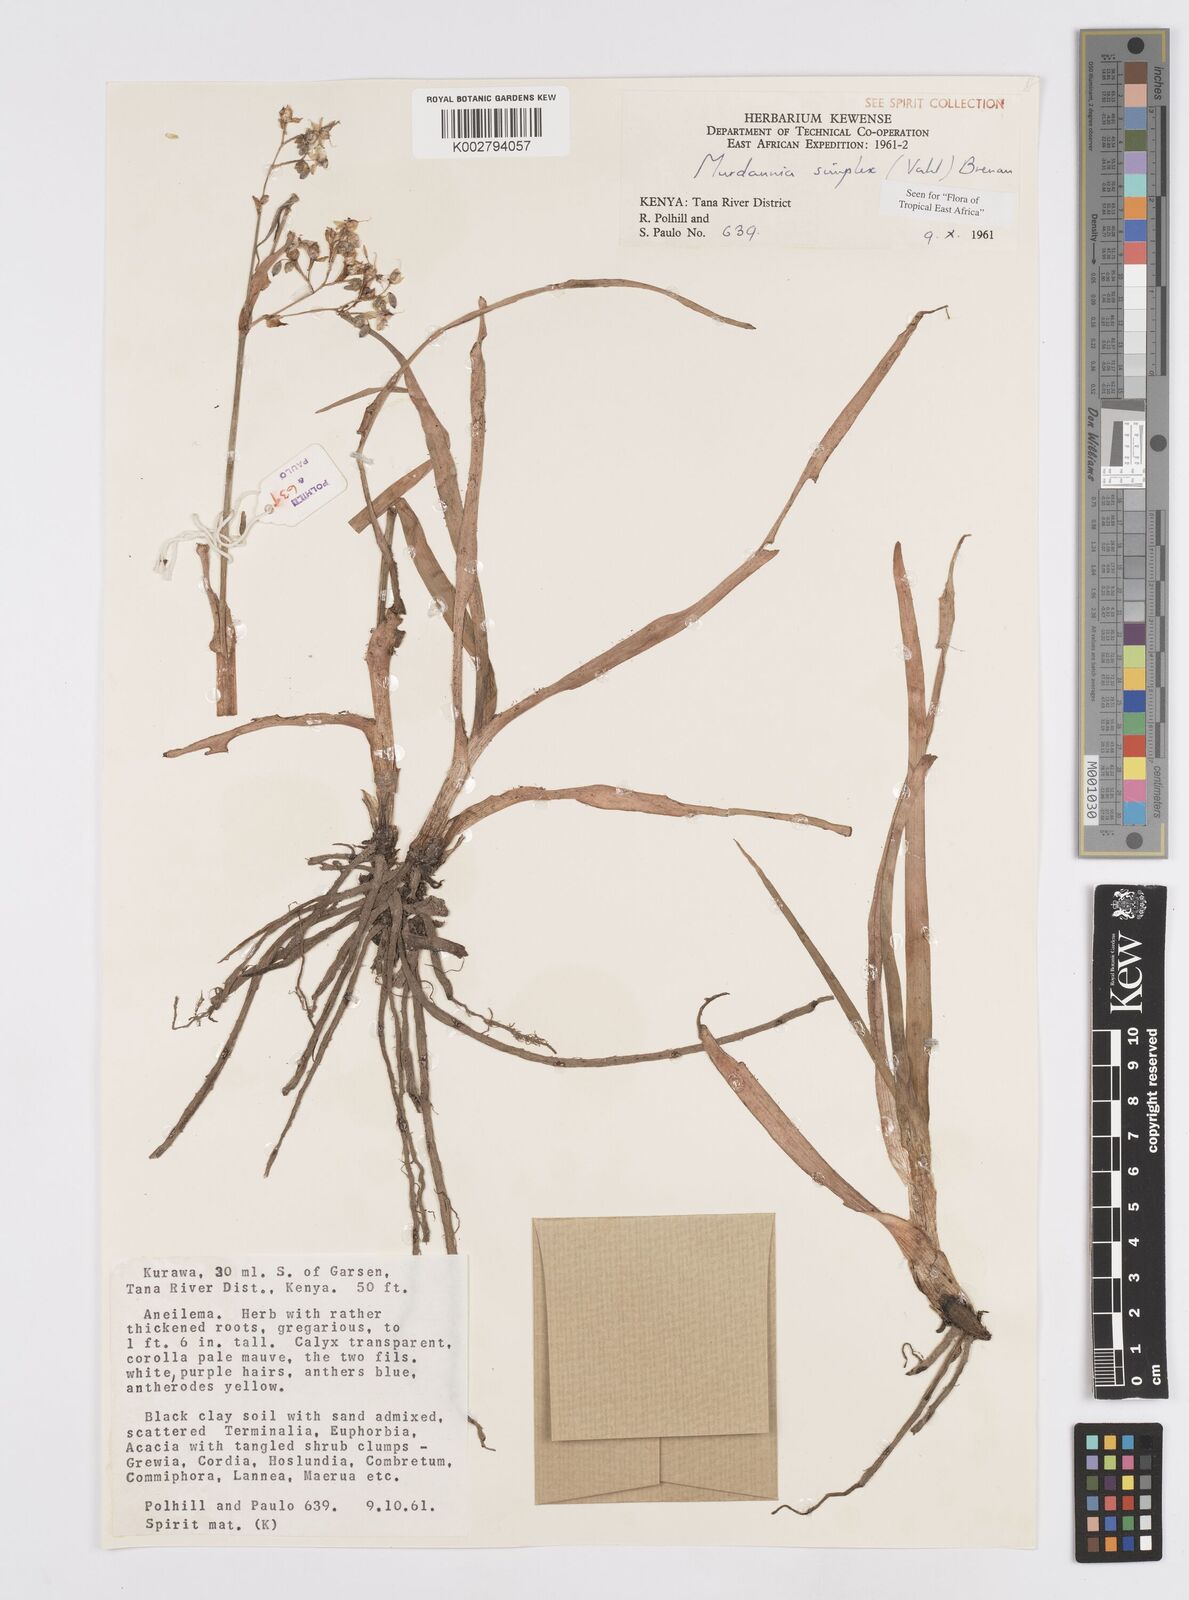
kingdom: Plantae
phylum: Tracheophyta
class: Liliopsida
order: Commelinales
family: Commelinaceae
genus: Murdannia
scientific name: Murdannia simplex
